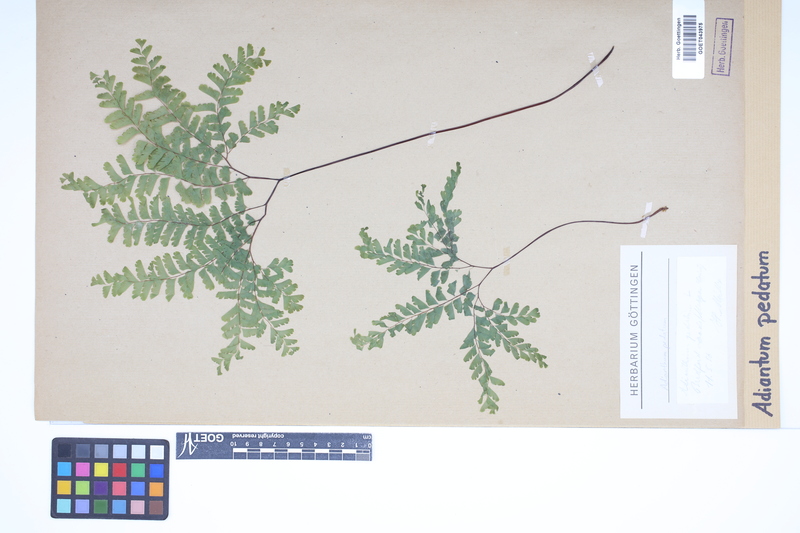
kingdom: Plantae
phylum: Tracheophyta
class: Polypodiopsida
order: Polypodiales
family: Pteridaceae
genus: Adiantum
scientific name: Adiantum pedatum
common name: Five-finger fern
